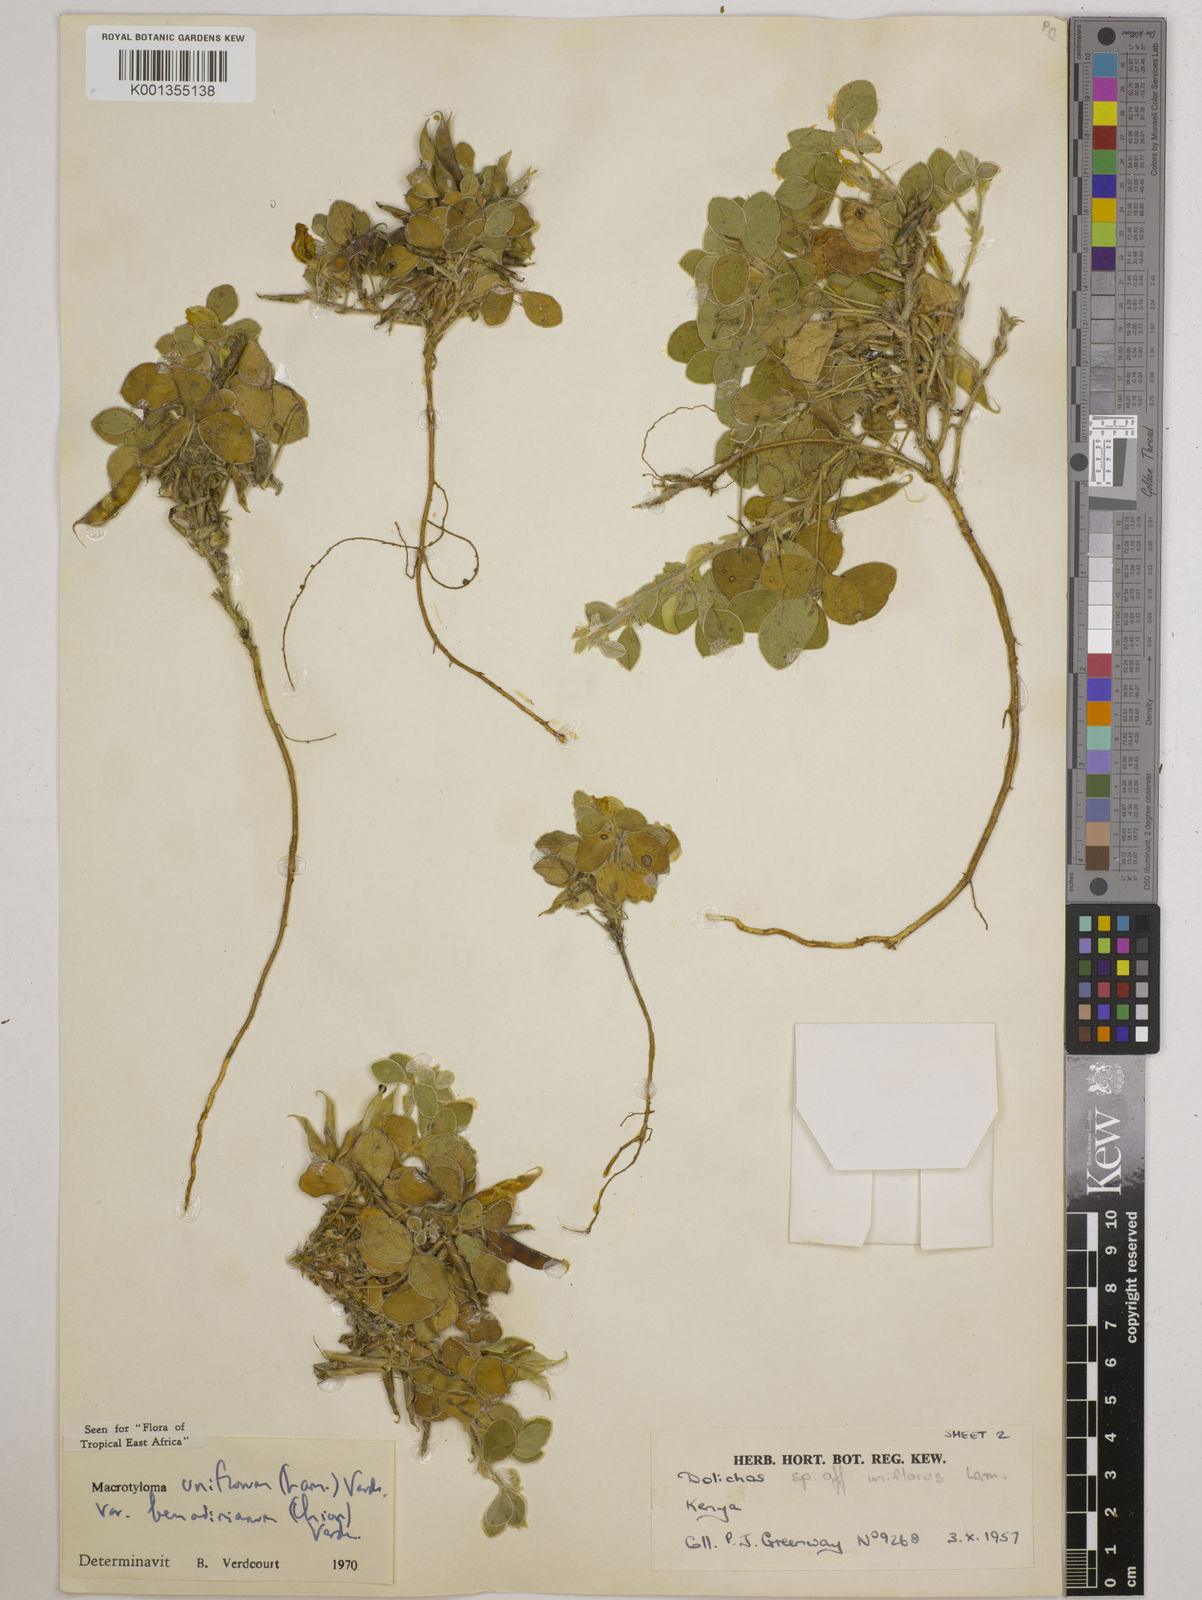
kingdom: Plantae
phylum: Tracheophyta
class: Magnoliopsida
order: Fabales
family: Fabaceae
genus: Macrotyloma
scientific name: Macrotyloma
